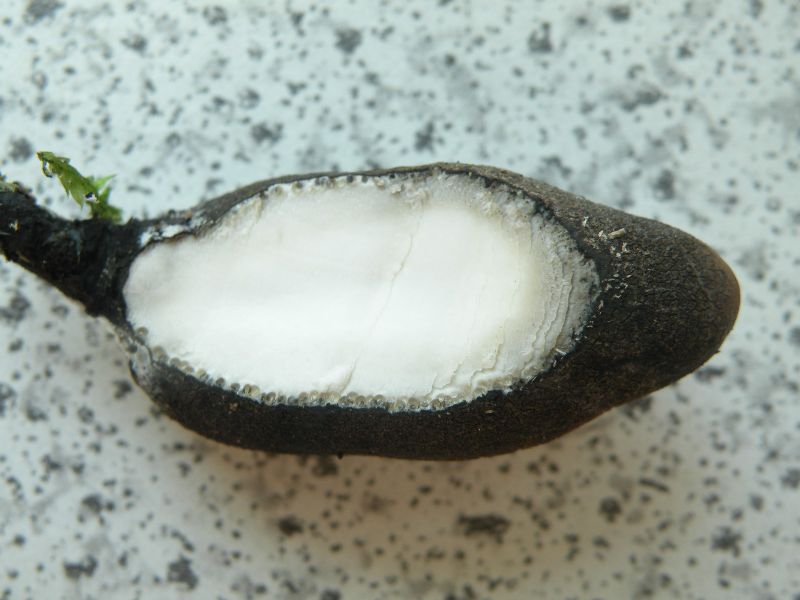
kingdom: Fungi
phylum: Ascomycota
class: Sordariomycetes
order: Xylariales
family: Xylariaceae
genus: Xylaria
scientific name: Xylaria polymorpha
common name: kølle-stødsvamp
